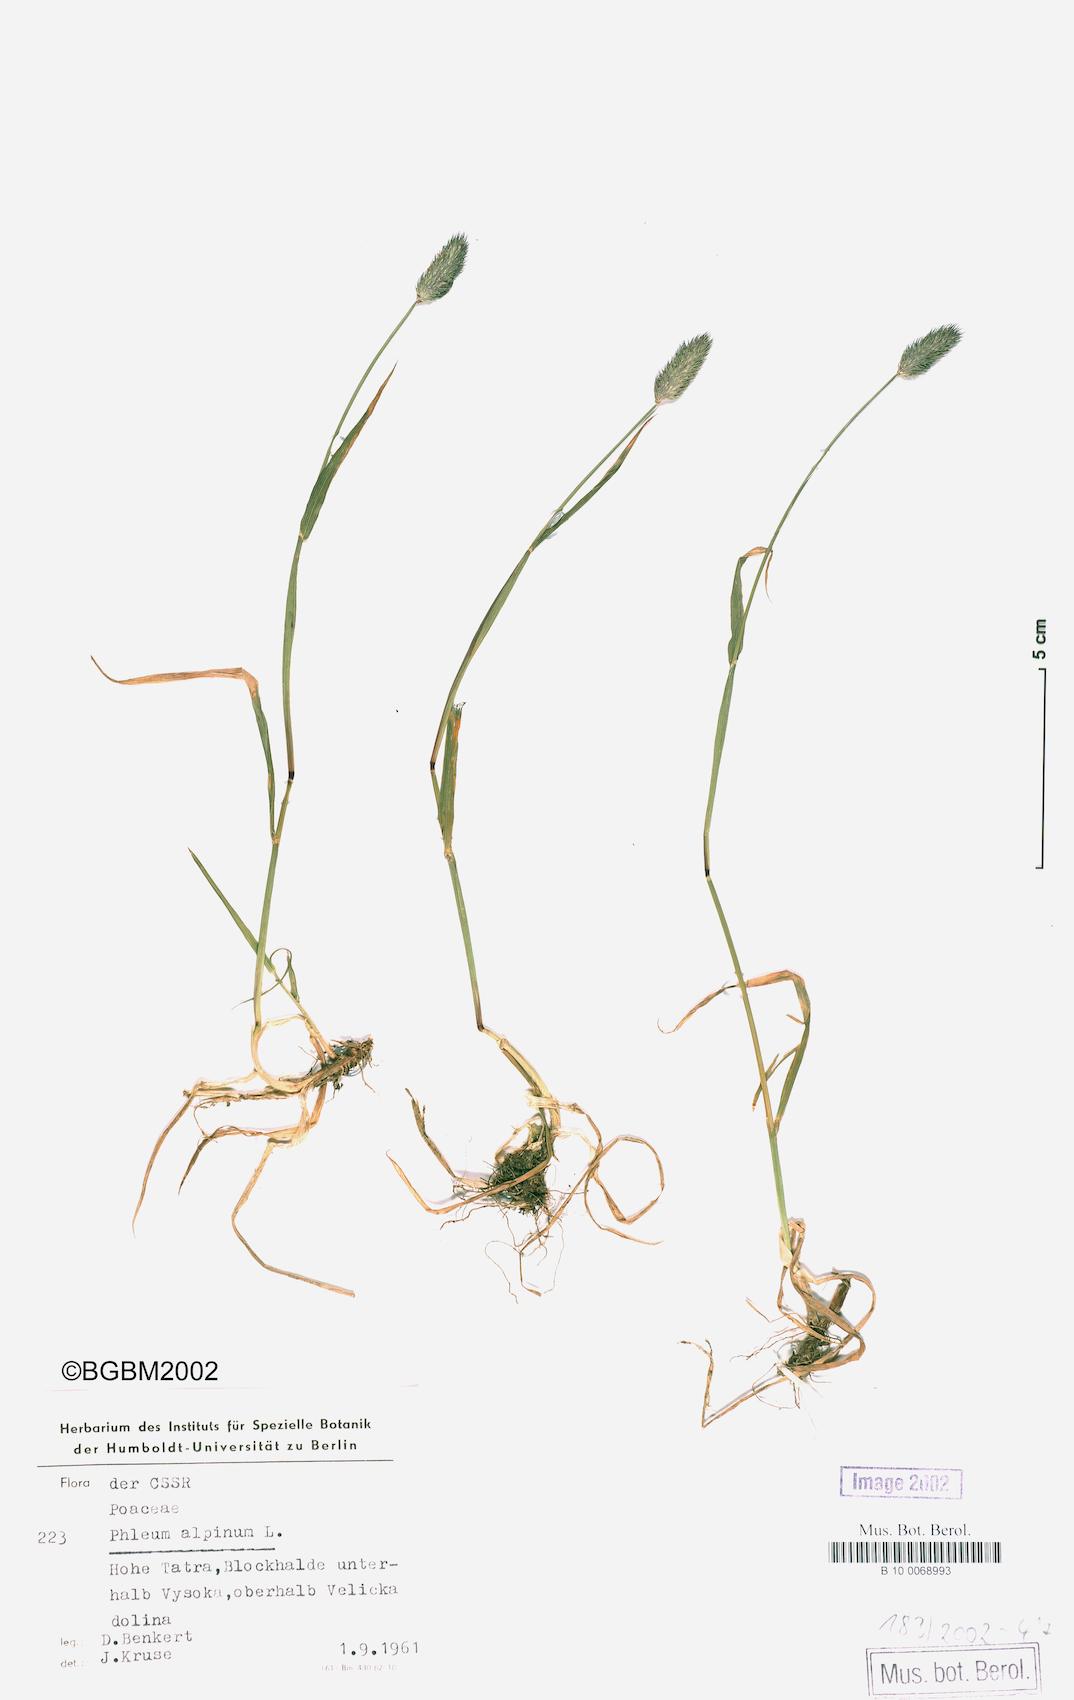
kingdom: Plantae
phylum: Tracheophyta
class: Liliopsida
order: Poales
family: Poaceae
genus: Phleum
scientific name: Phleum alpinum
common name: Alpine cat's-tail
